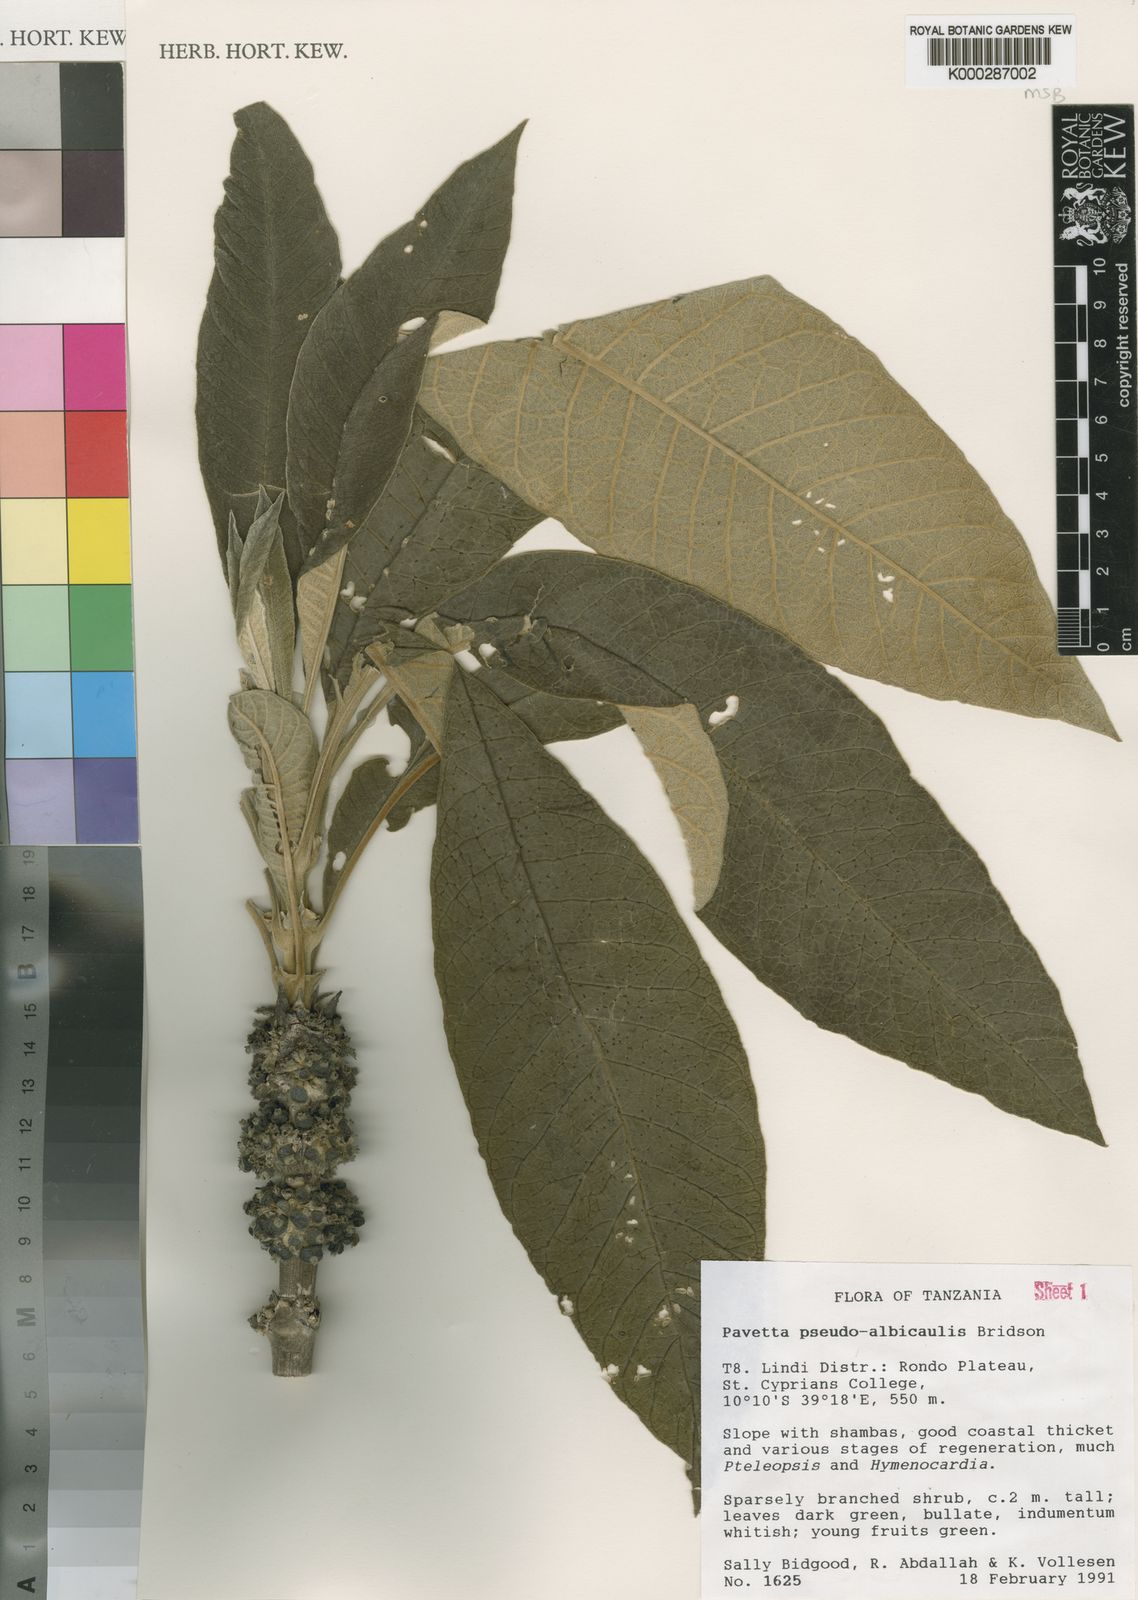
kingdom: Plantae
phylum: Tracheophyta
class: Magnoliopsida
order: Gentianales
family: Rubiaceae
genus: Pavetta
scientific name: Pavetta pseudoalbicaulis
